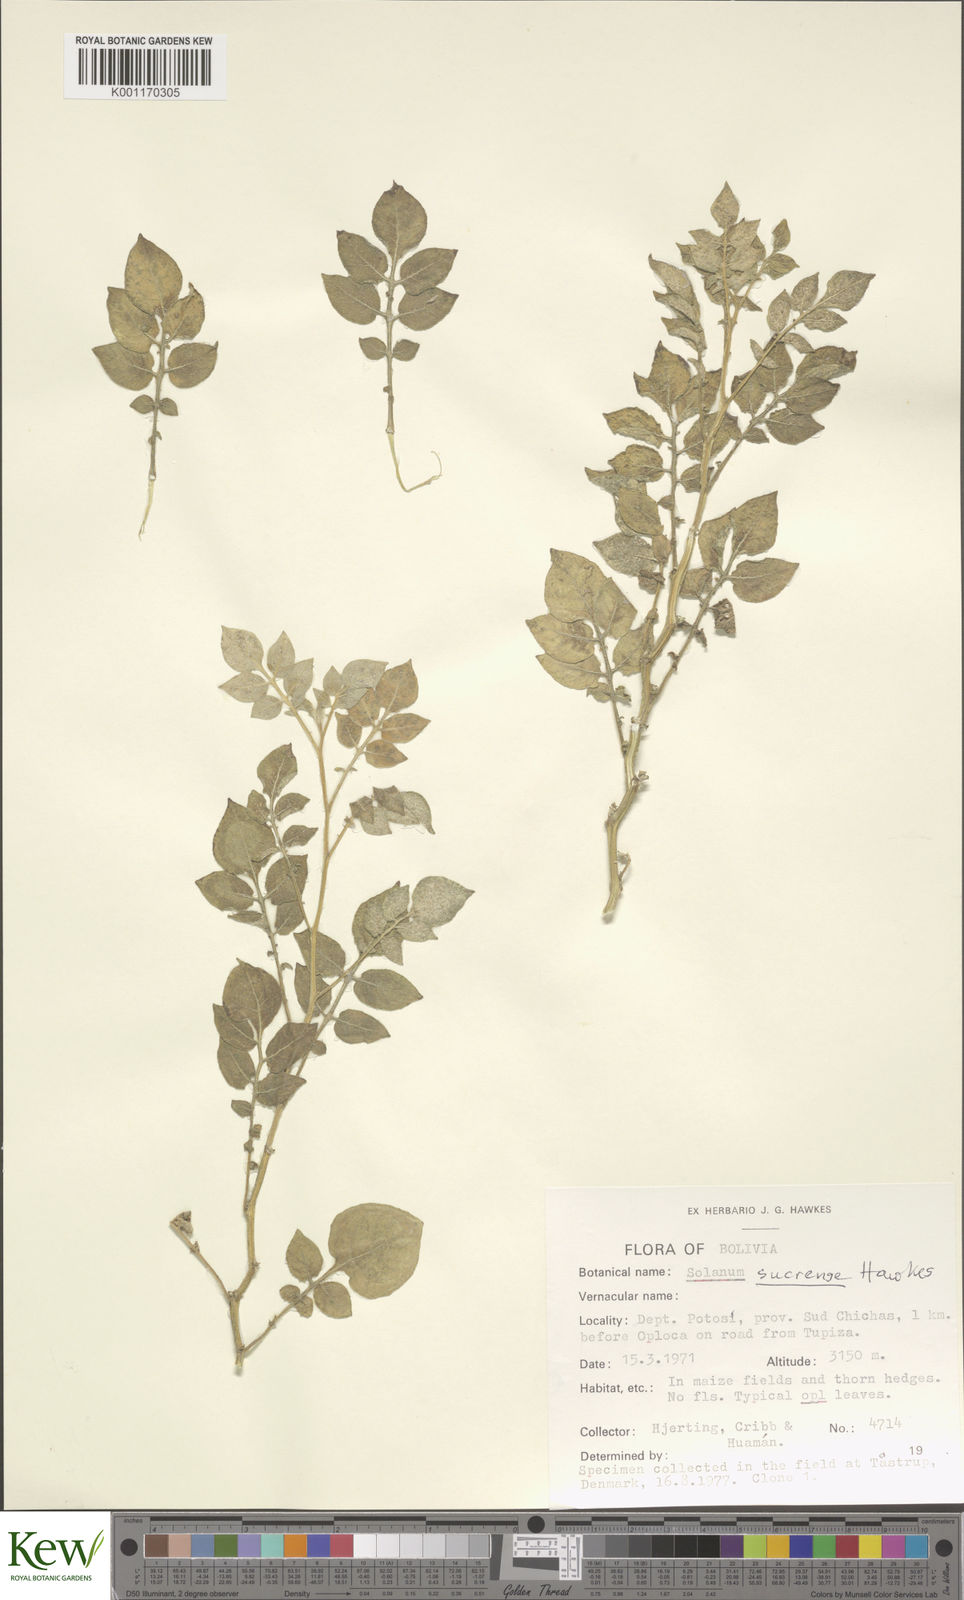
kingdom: Plantae
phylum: Tracheophyta
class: Magnoliopsida
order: Solanales
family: Solanaceae
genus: Solanum
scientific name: Solanum brevicaule
